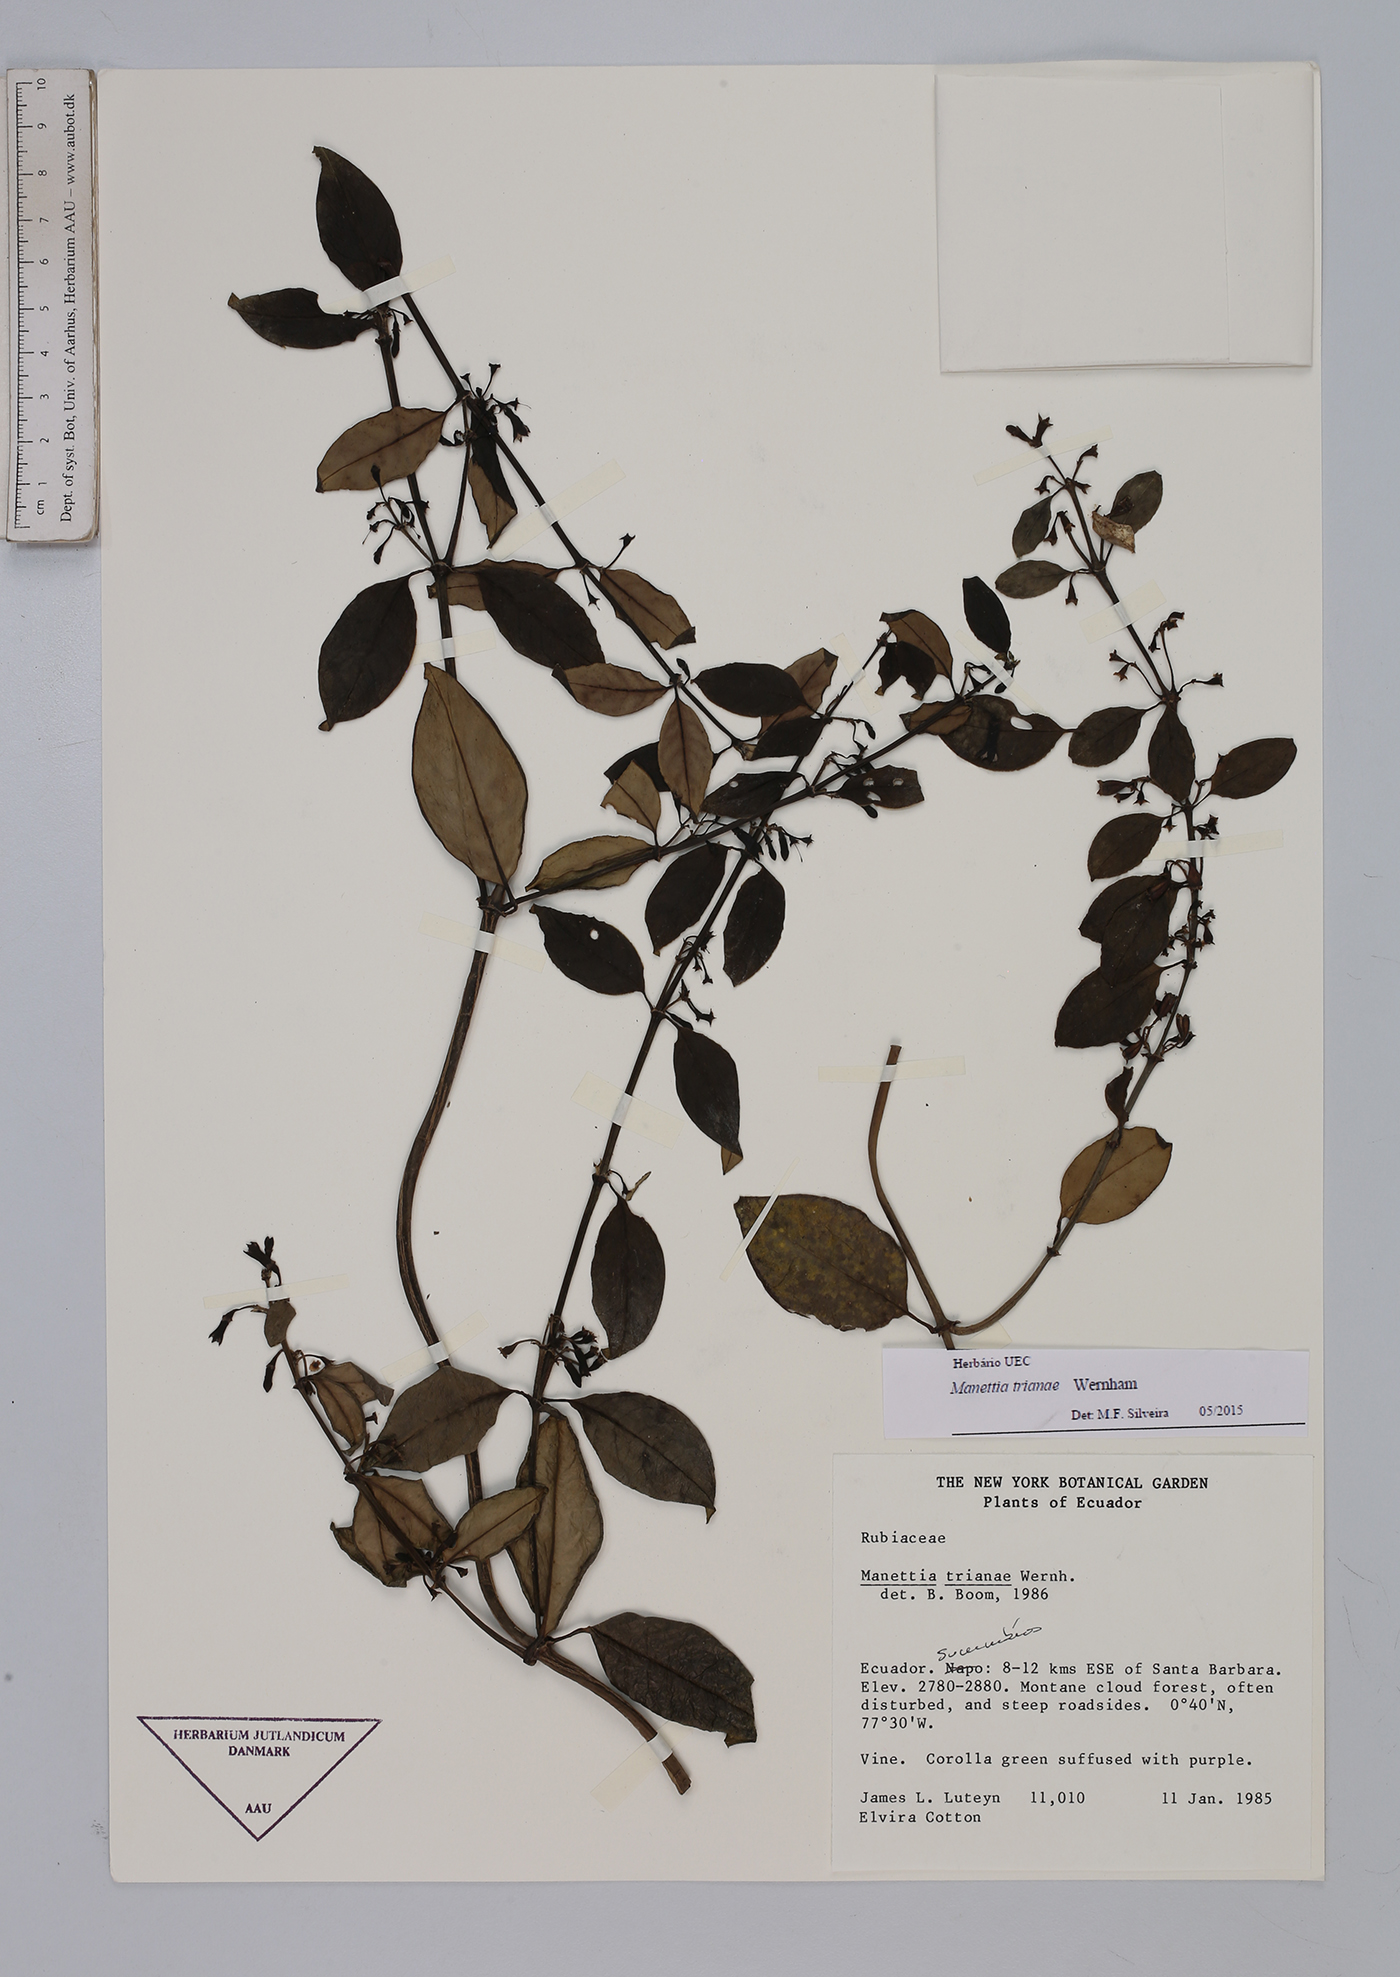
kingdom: Plantae
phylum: Tracheophyta
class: Magnoliopsida
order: Gentianales
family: Rubiaceae
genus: Manettia
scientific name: Manettia trianae
